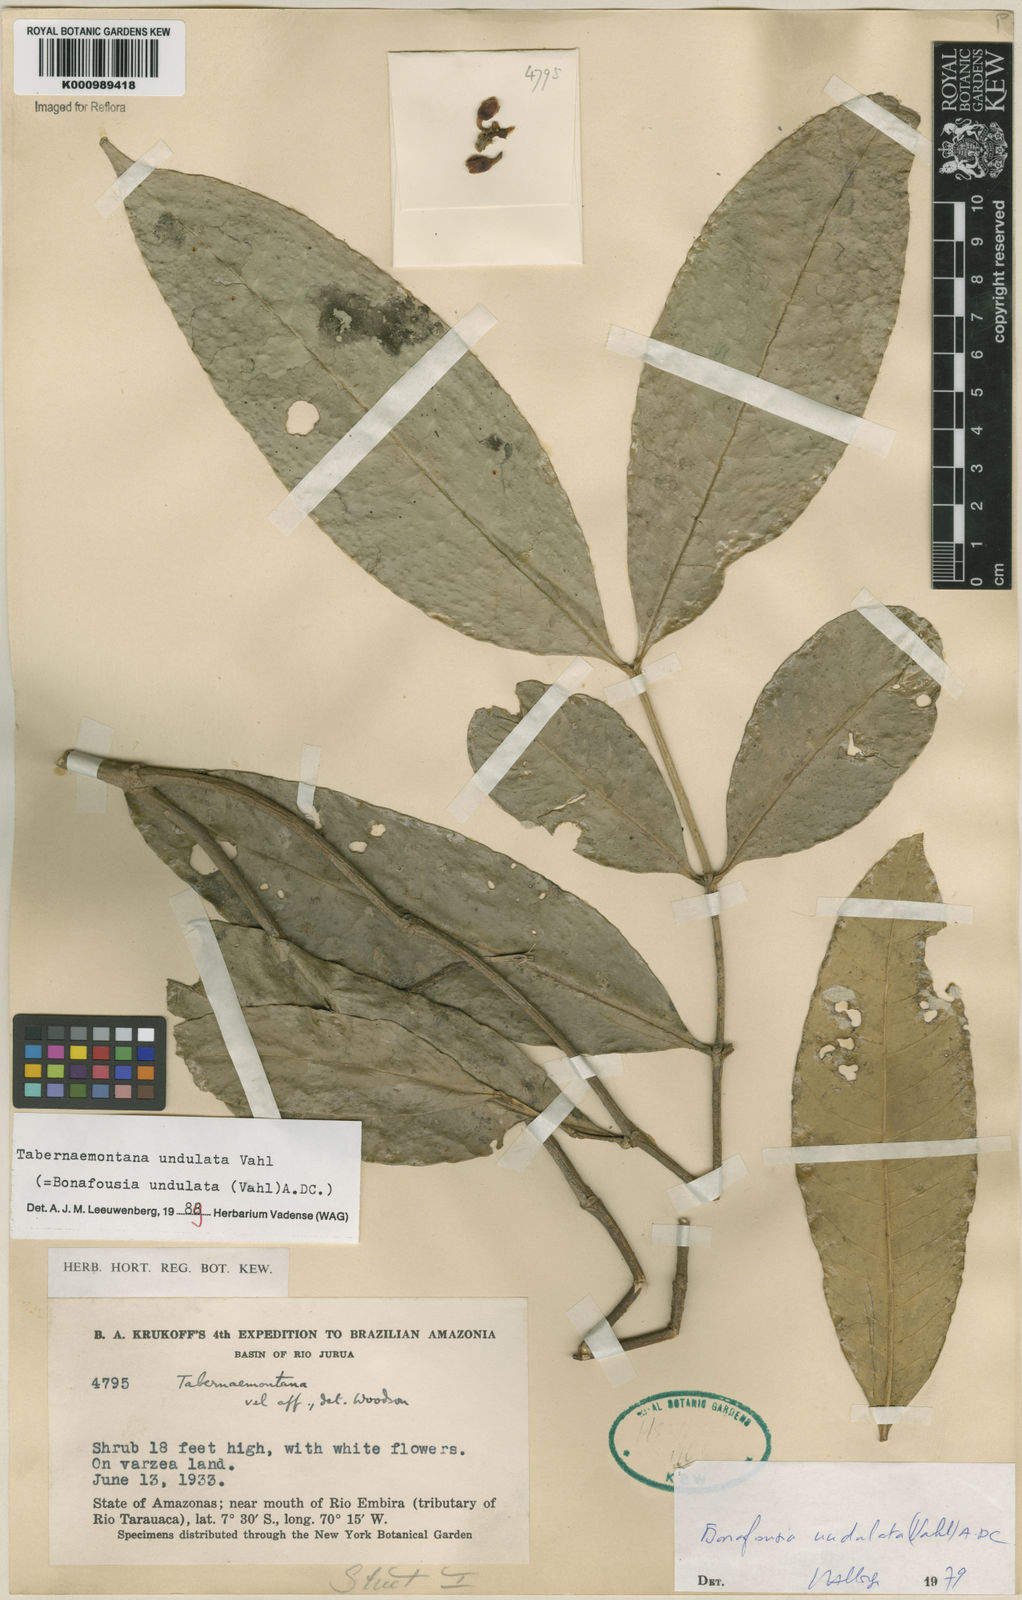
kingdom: Plantae
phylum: Tracheophyta
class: Magnoliopsida
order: Gentianales
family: Apocynaceae
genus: Tabernaemontana
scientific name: Tabernaemontana undulata
